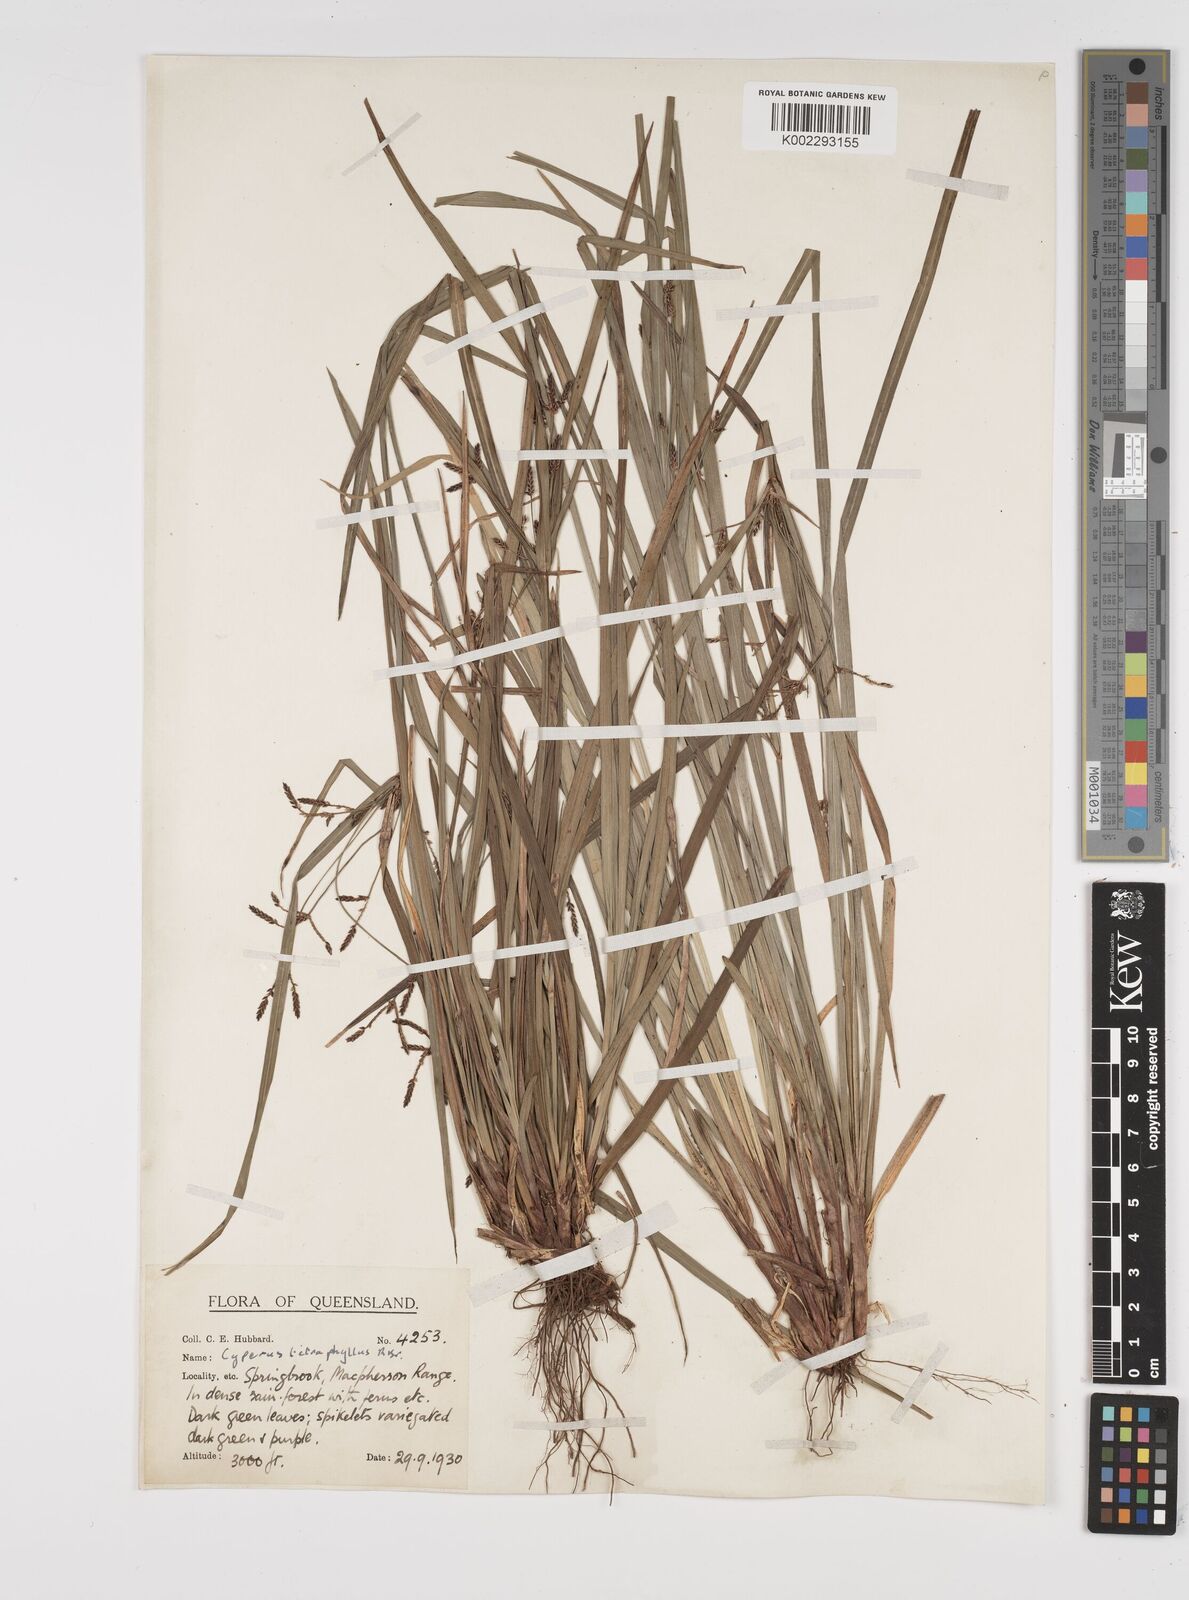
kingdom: Plantae
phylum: Tracheophyta
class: Liliopsida
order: Poales
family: Cyperaceae
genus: Cyperus
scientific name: Cyperus tetraphyllus
